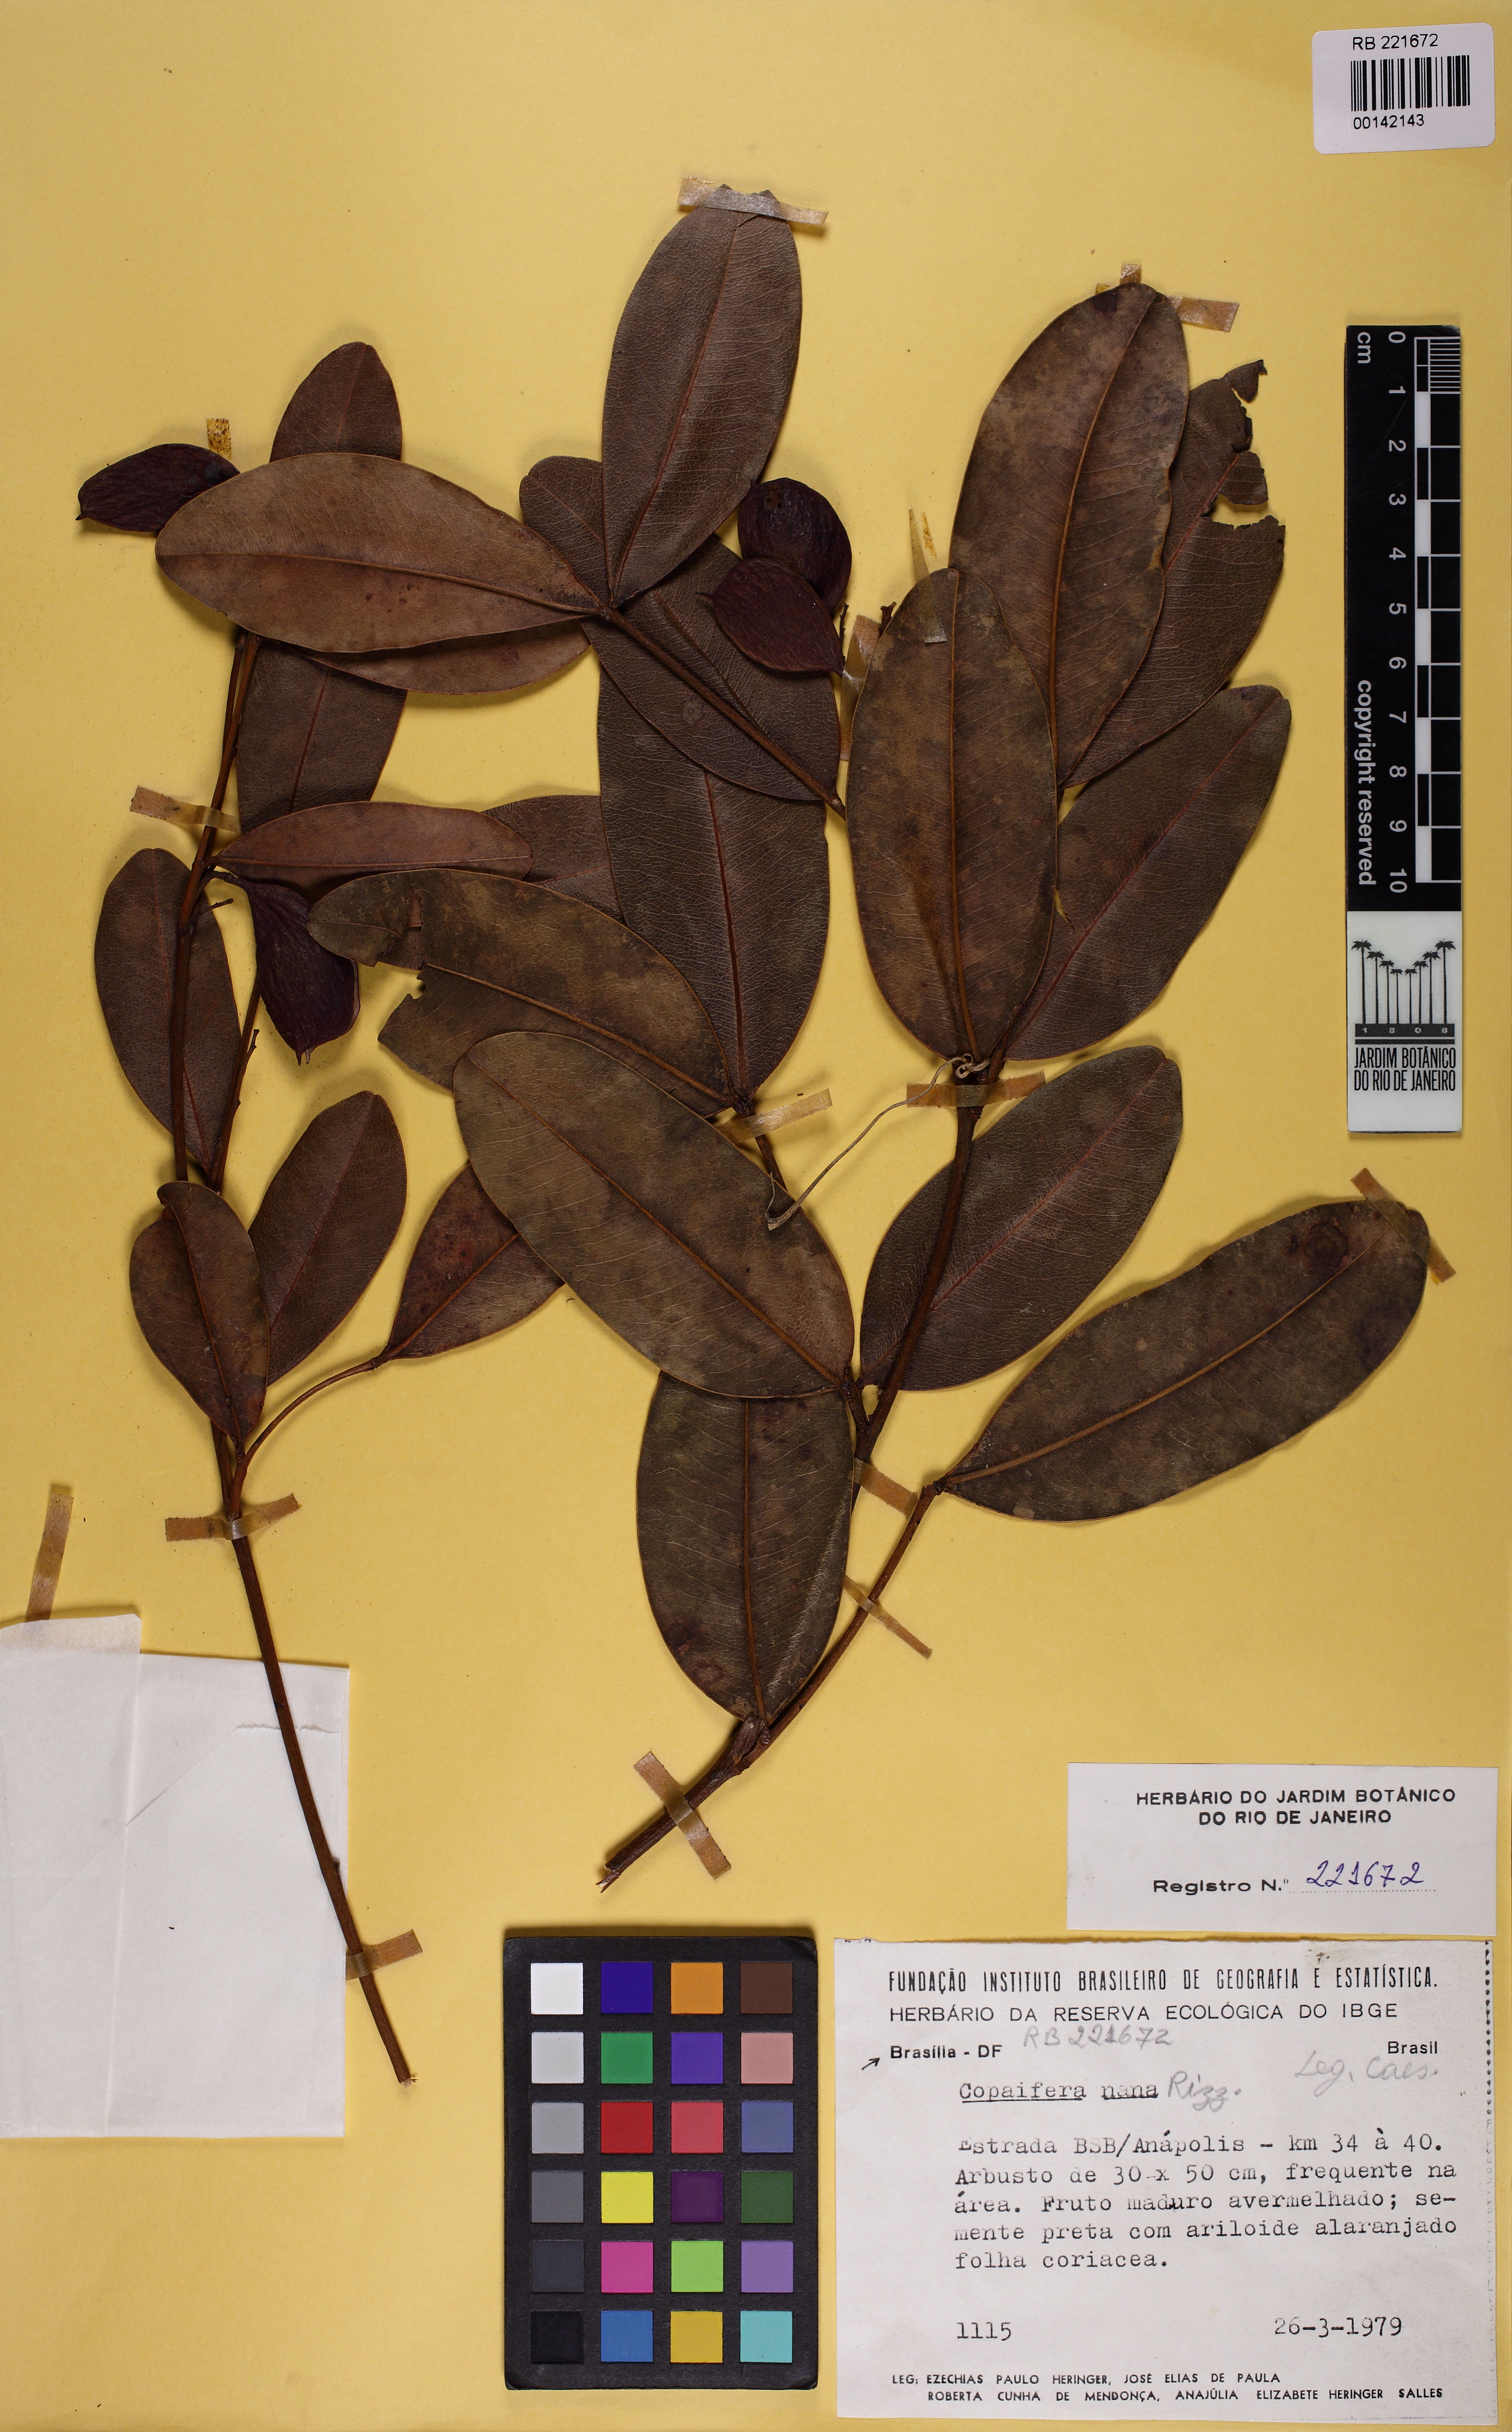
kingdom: Plantae
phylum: Tracheophyta
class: Magnoliopsida
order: Fabales
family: Fabaceae
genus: Copaifera
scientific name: Copaifera nana
